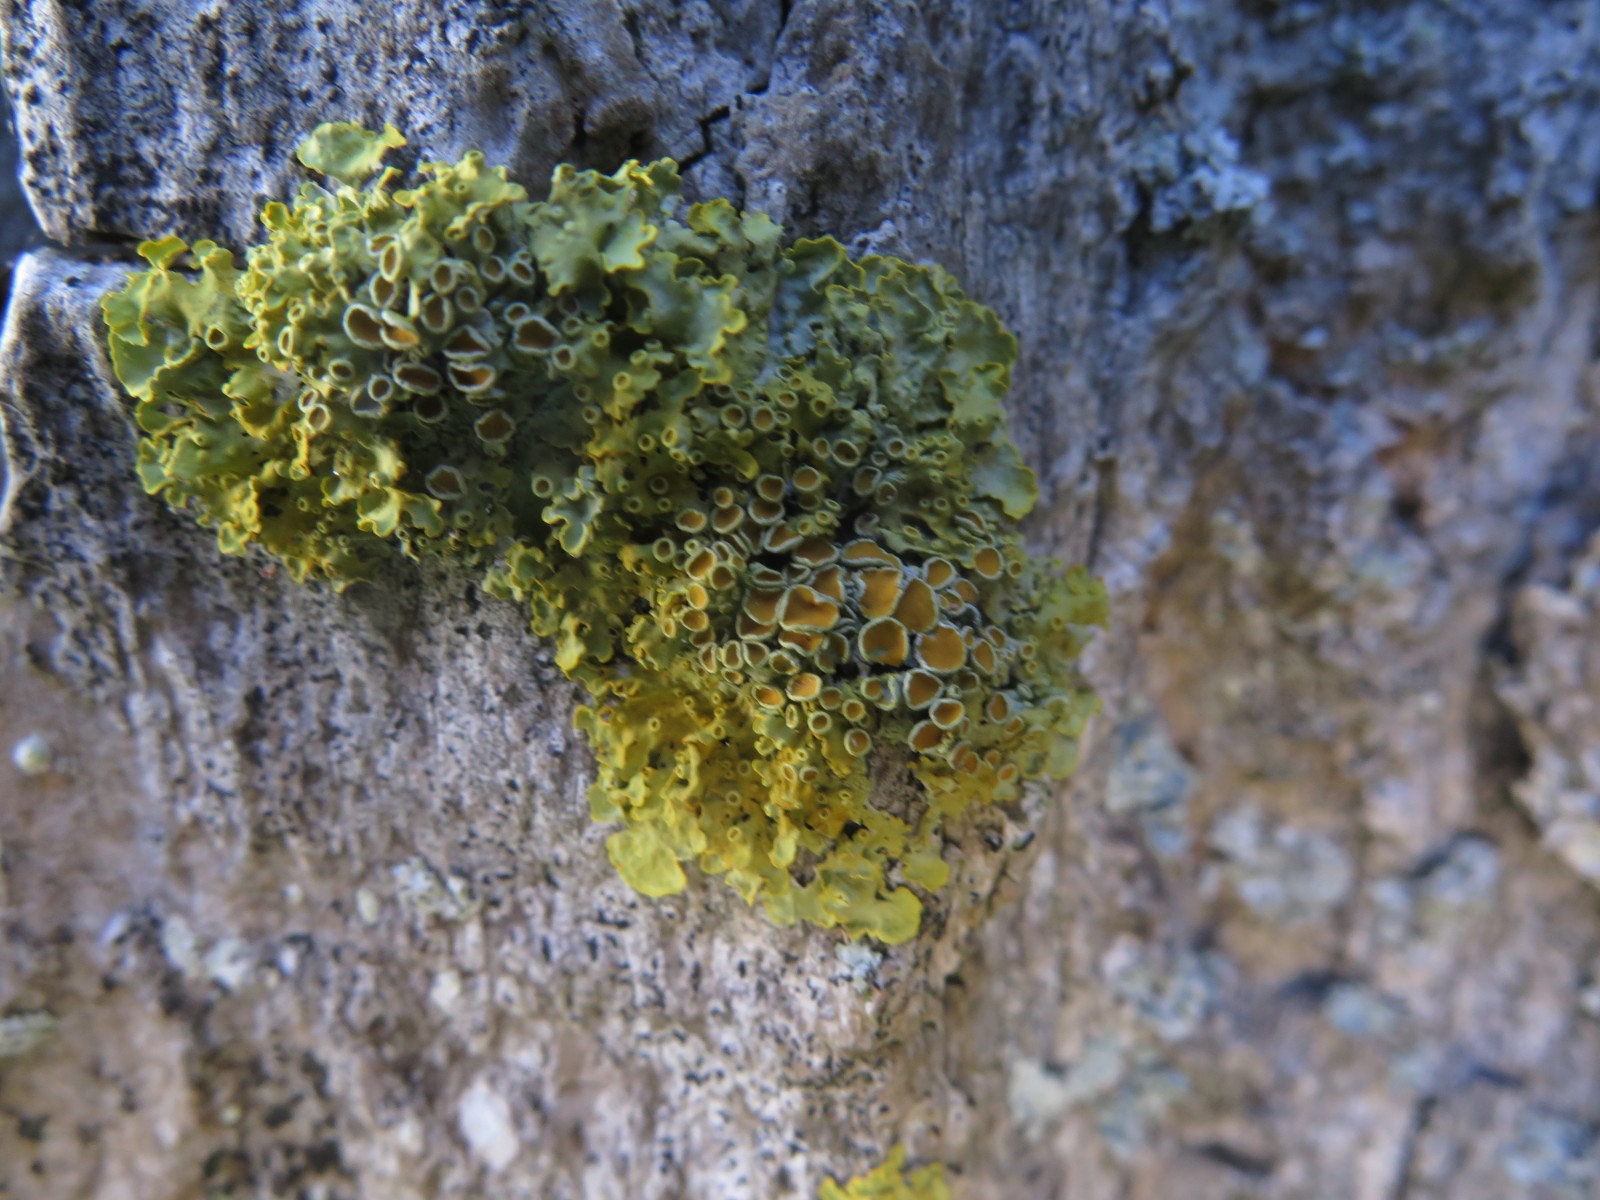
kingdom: Fungi
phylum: Ascomycota
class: Lecanoromycetes
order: Teloschistales
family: Teloschistaceae
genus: Xanthoria
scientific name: Xanthoria parietina
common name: almindelig væggelav
